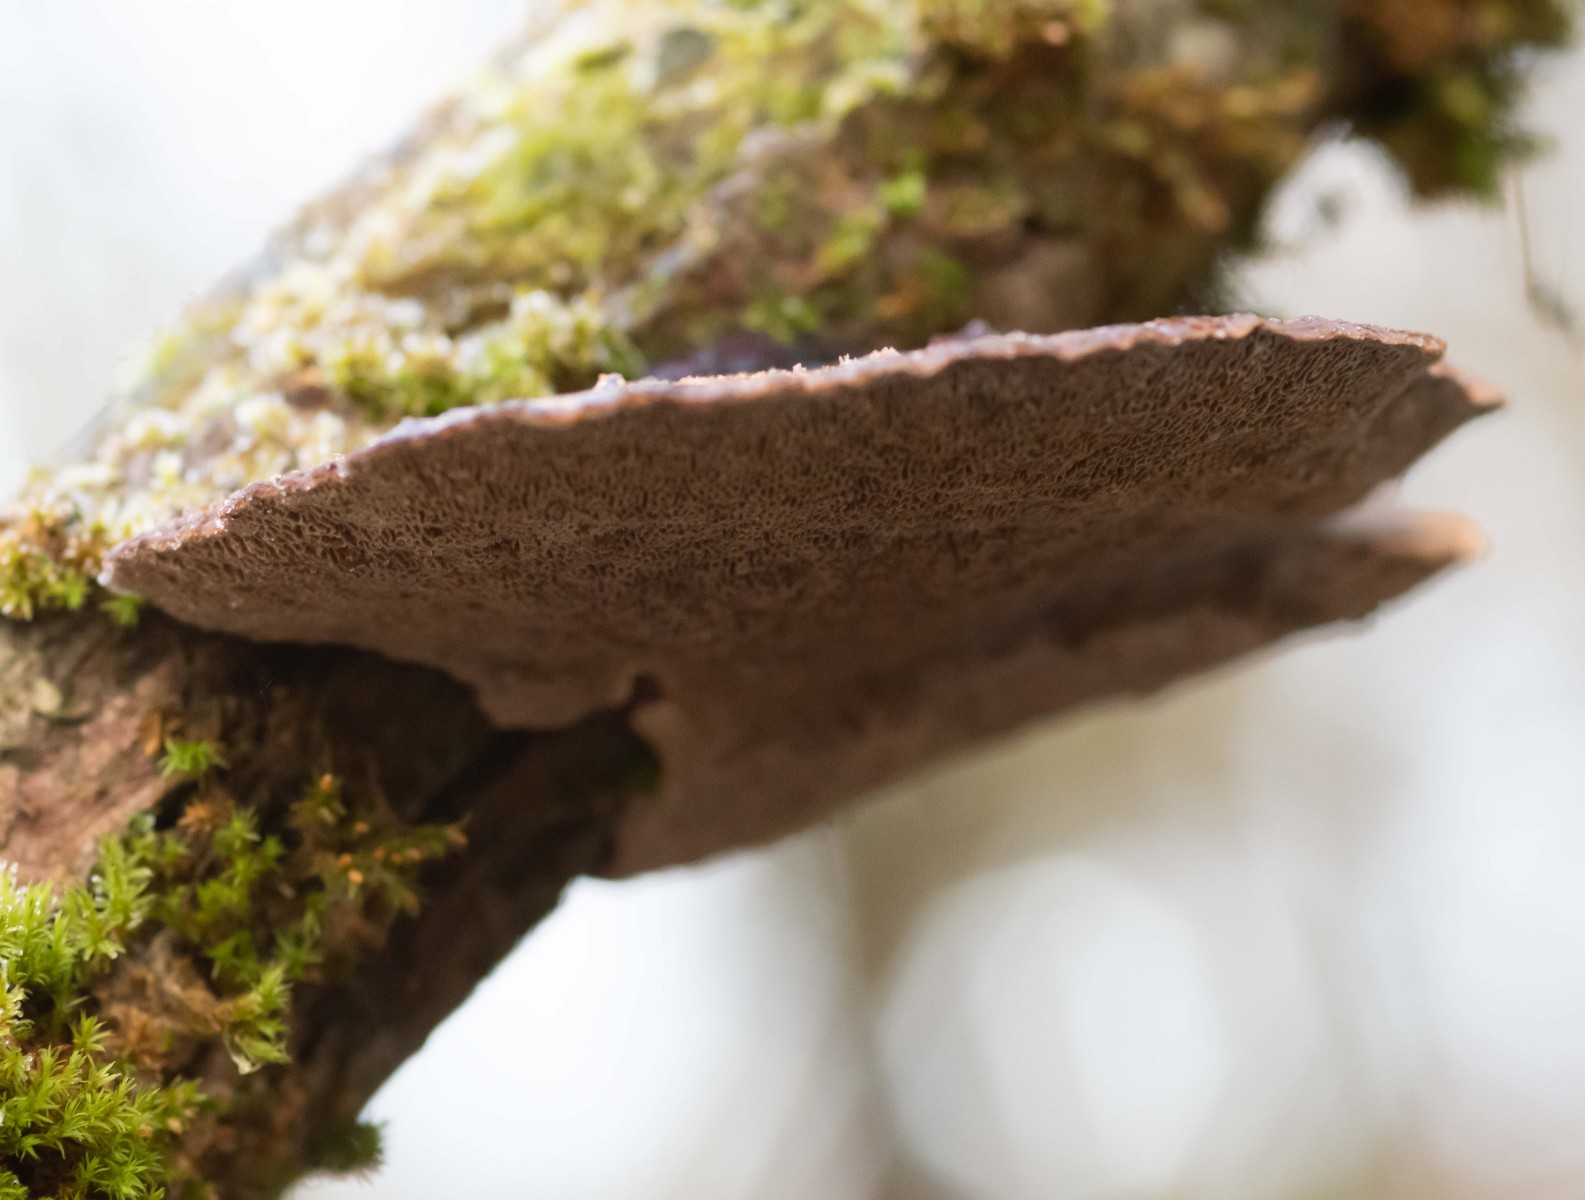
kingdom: Fungi
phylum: Basidiomycota
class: Agaricomycetes
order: Polyporales
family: Polyporaceae
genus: Daedaleopsis
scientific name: Daedaleopsis confragosa
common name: rødmende læderporesvamp
